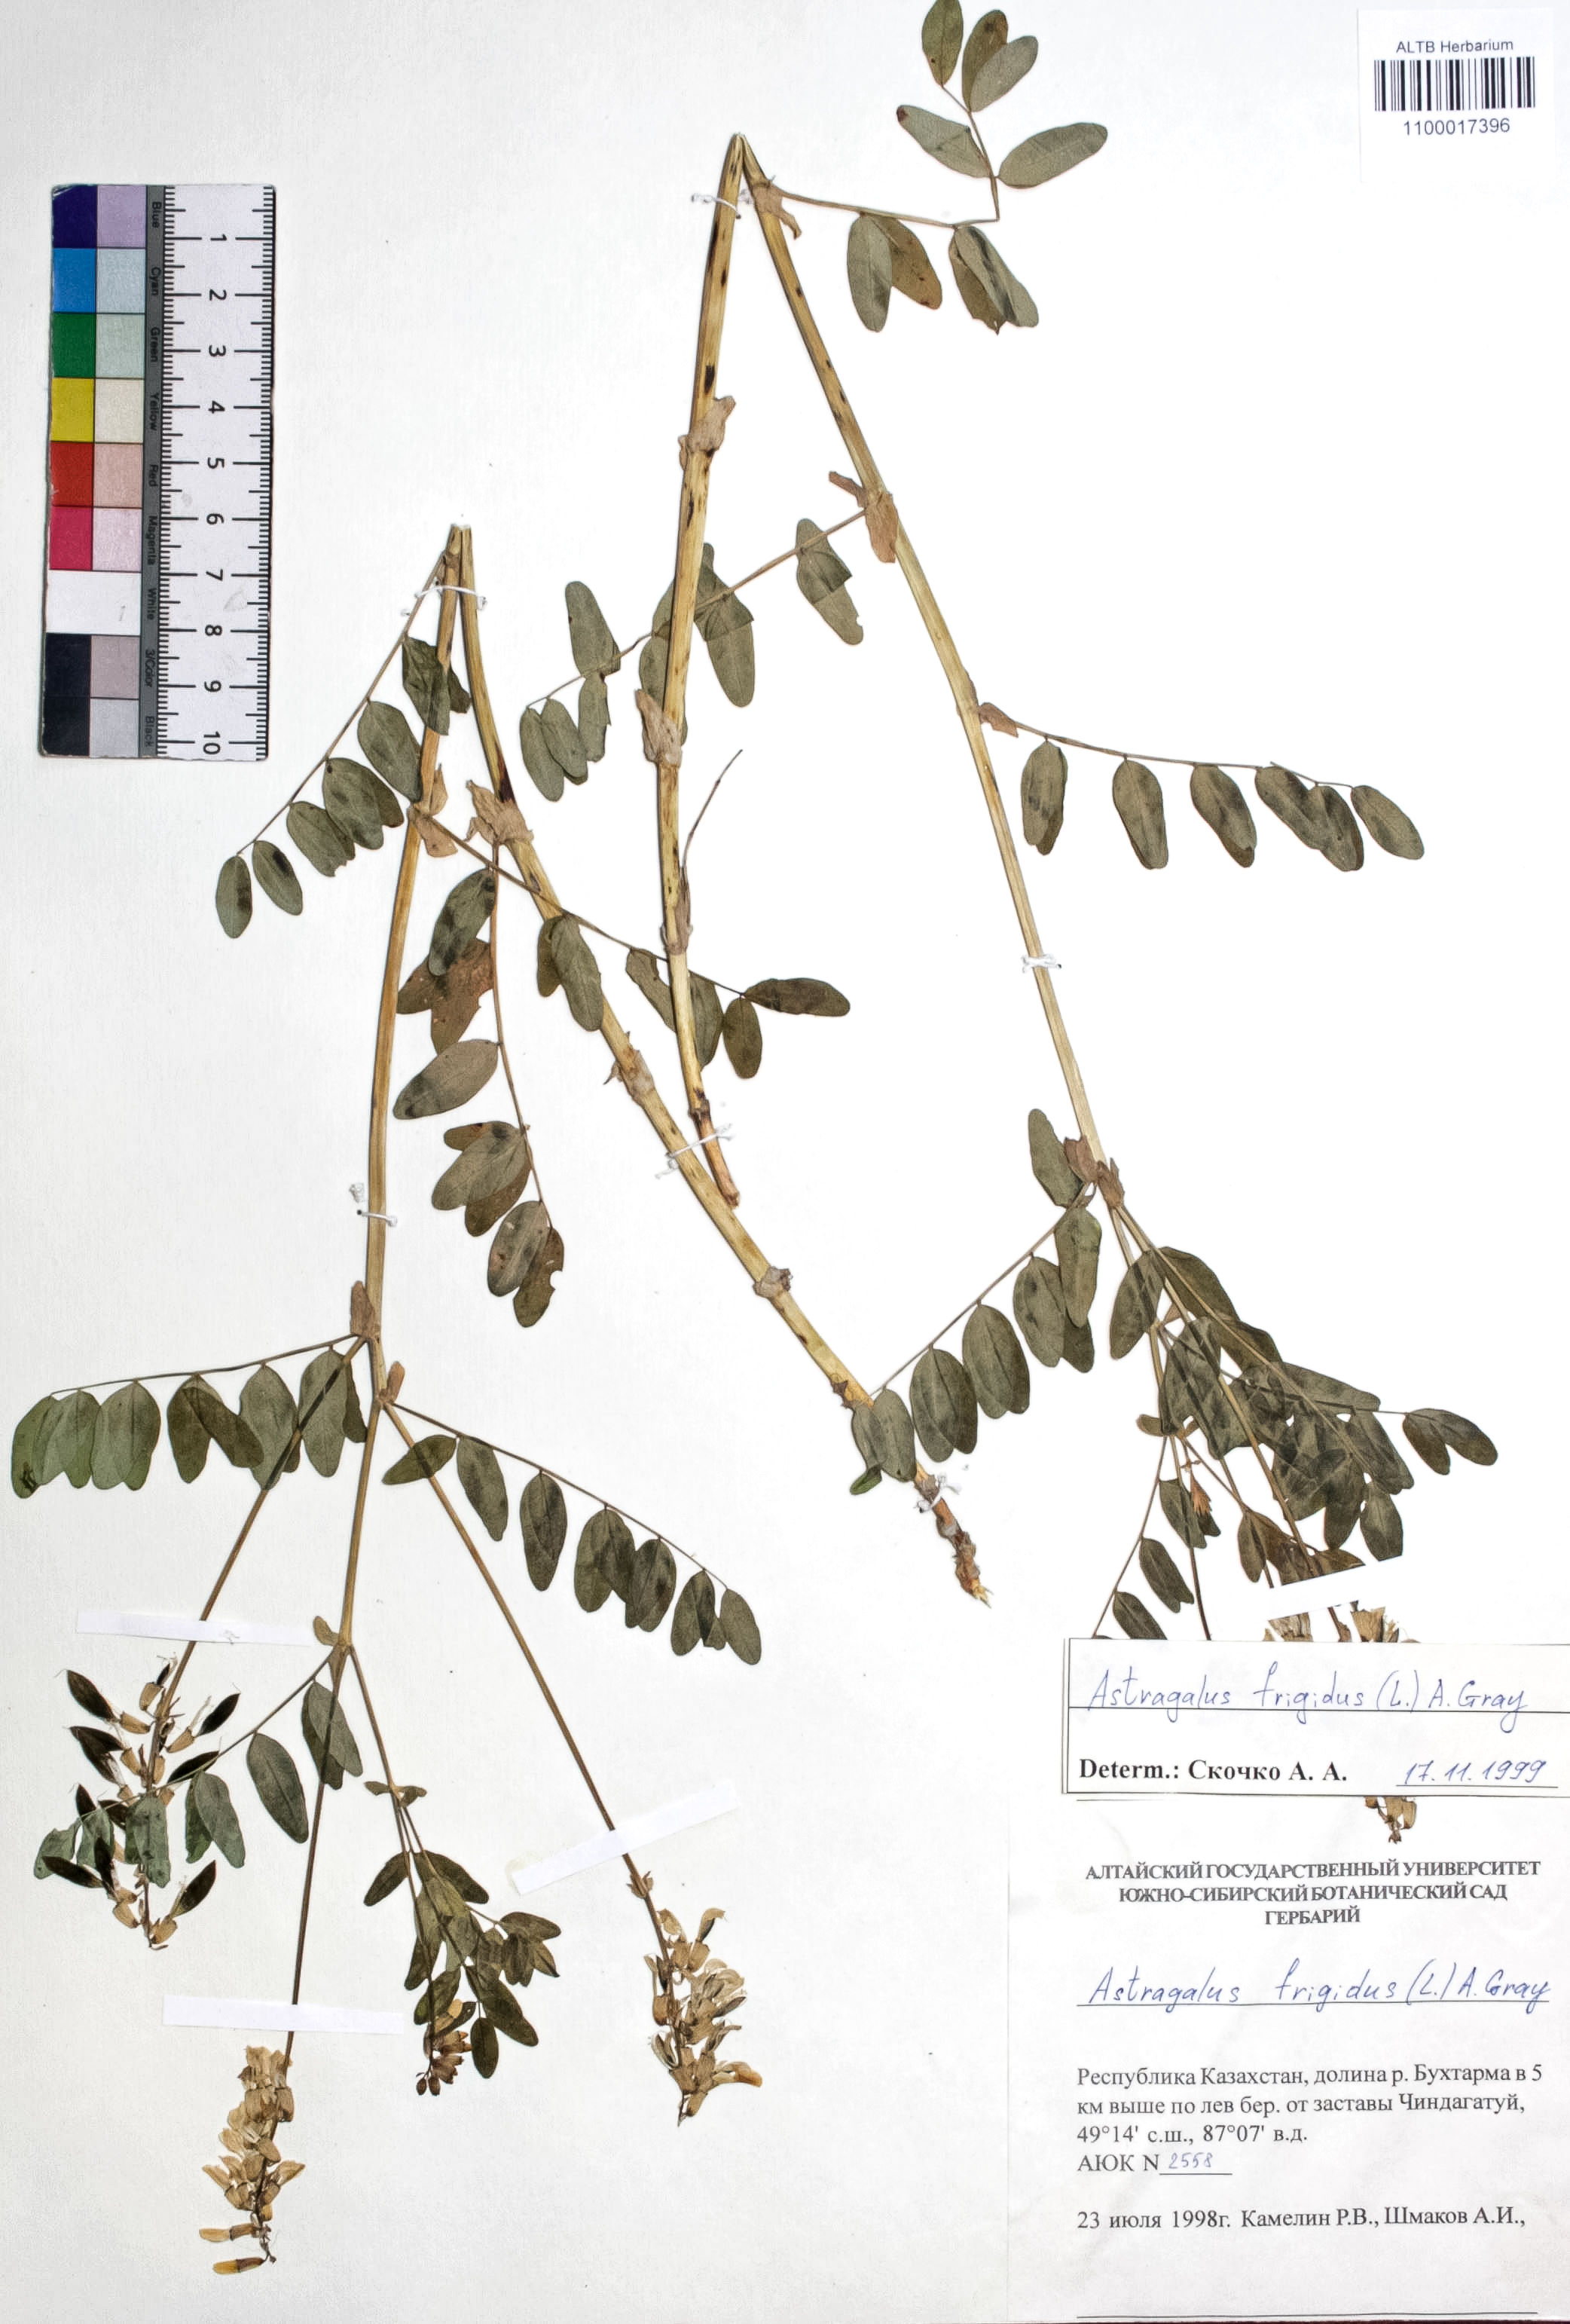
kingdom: Plantae
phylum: Tracheophyta
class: Magnoliopsida
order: Fabales
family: Fabaceae
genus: Astragalus
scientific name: Astragalus frigidus
